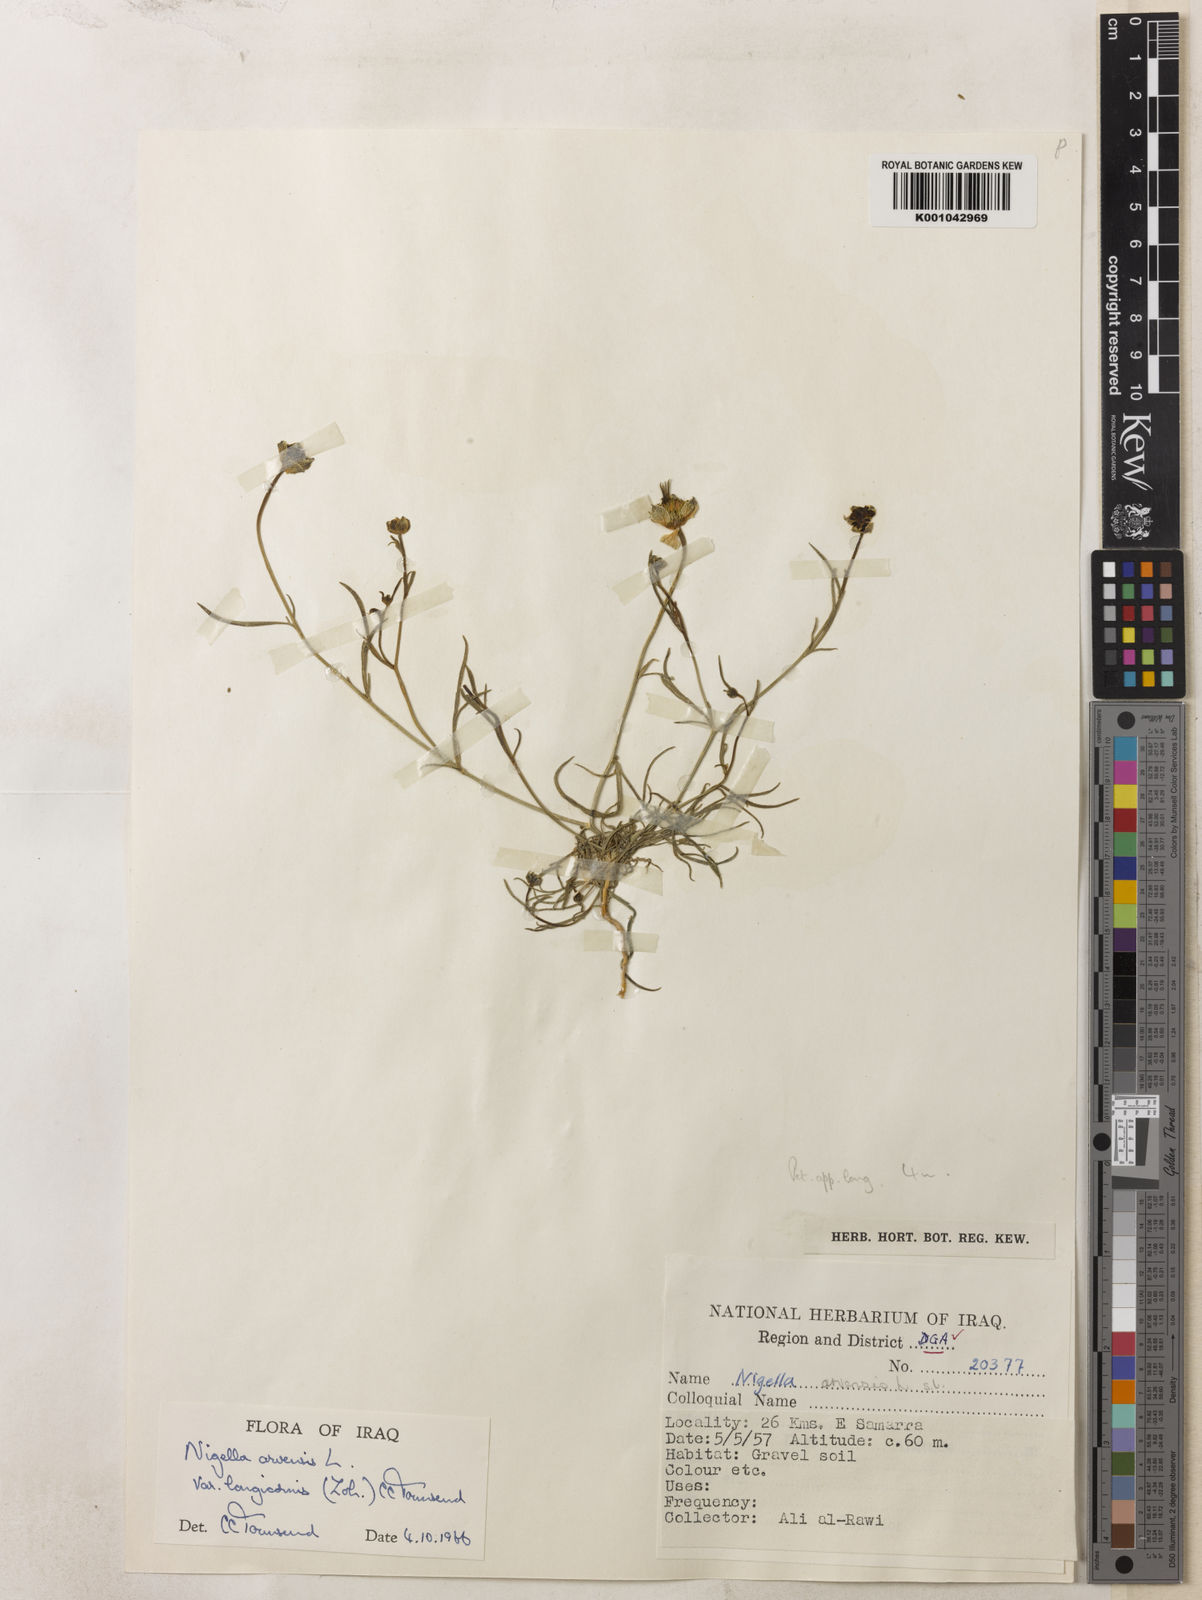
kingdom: Plantae
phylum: Tracheophyta
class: Magnoliopsida
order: Ranunculales
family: Ranunculaceae
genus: Nigella
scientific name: Nigella arvensis
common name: Wild fennel-flower
